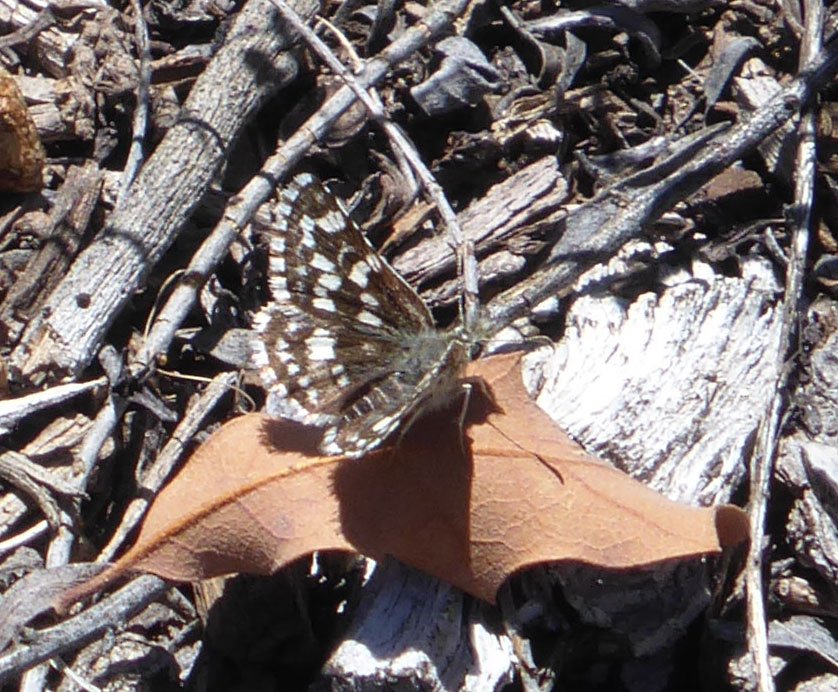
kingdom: Animalia
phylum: Arthropoda
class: Insecta
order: Lepidoptera
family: Hesperiidae
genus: Pyrgus
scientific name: Pyrgus ruralis
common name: Mountain Checkered-Skipper
